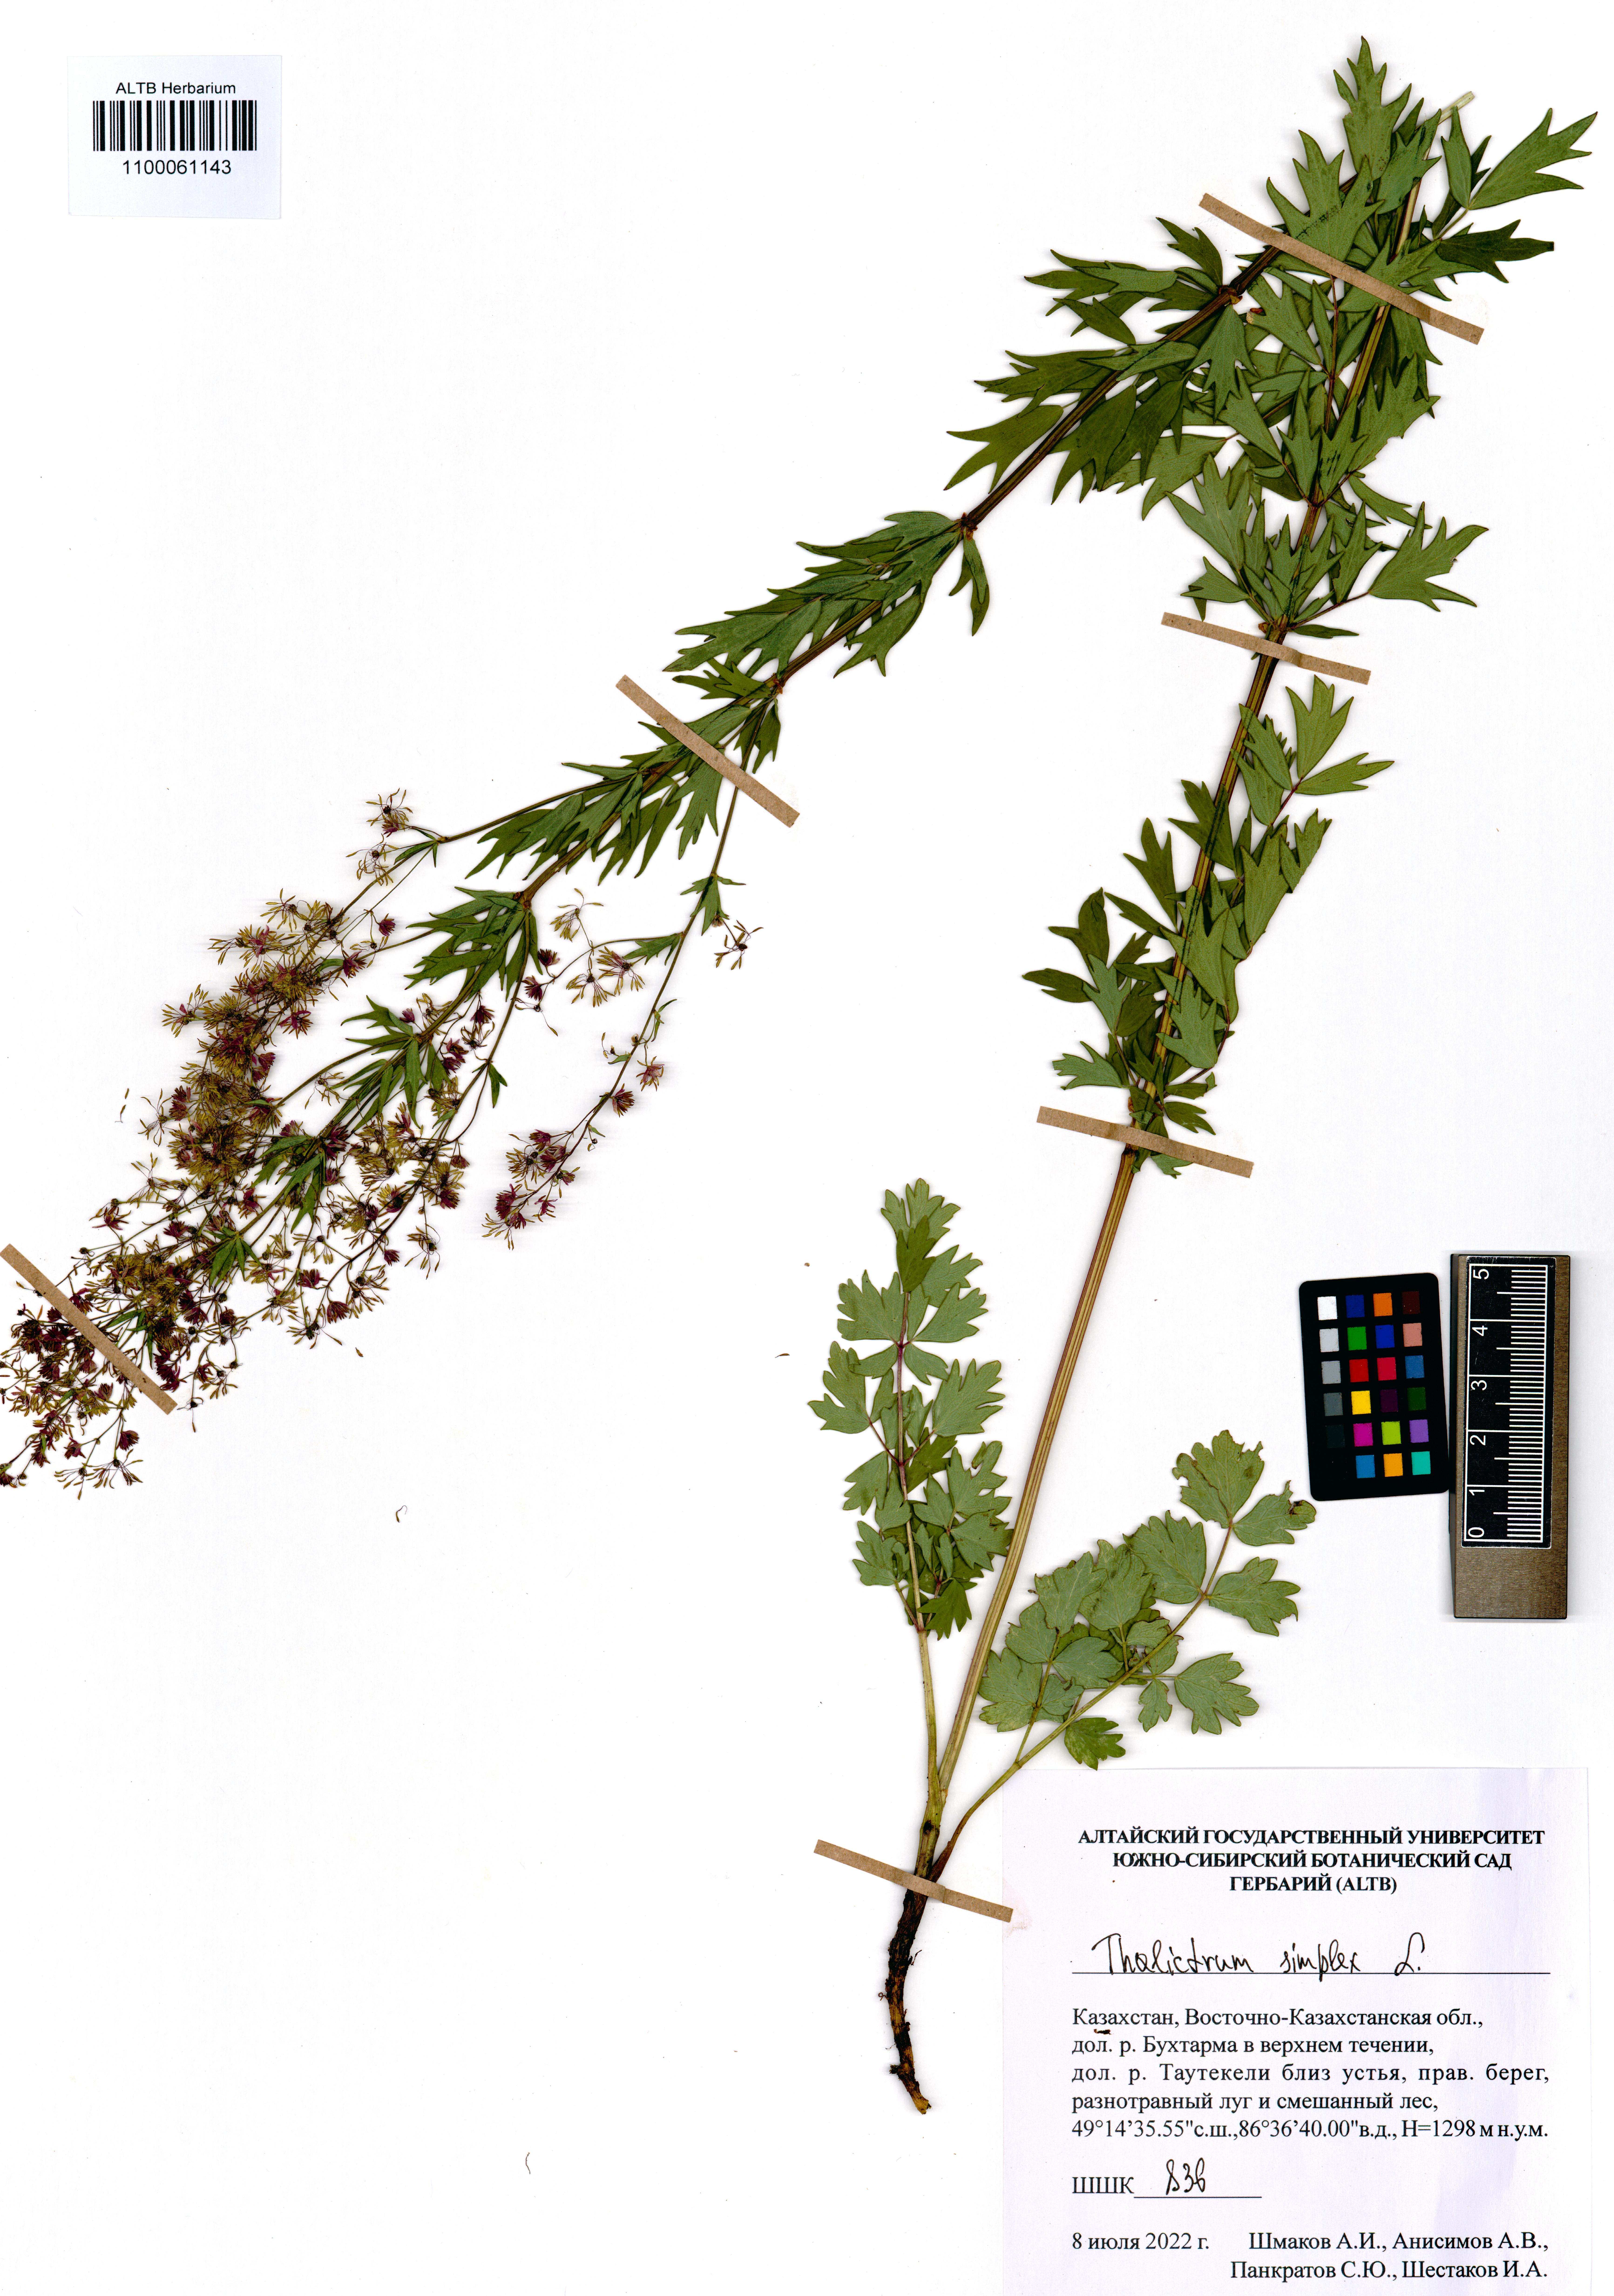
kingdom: Plantae
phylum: Tracheophyta
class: Magnoliopsida
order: Ranunculales
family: Ranunculaceae
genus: Thalictrum
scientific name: Thalictrum simplex
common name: Small meadow-rue
